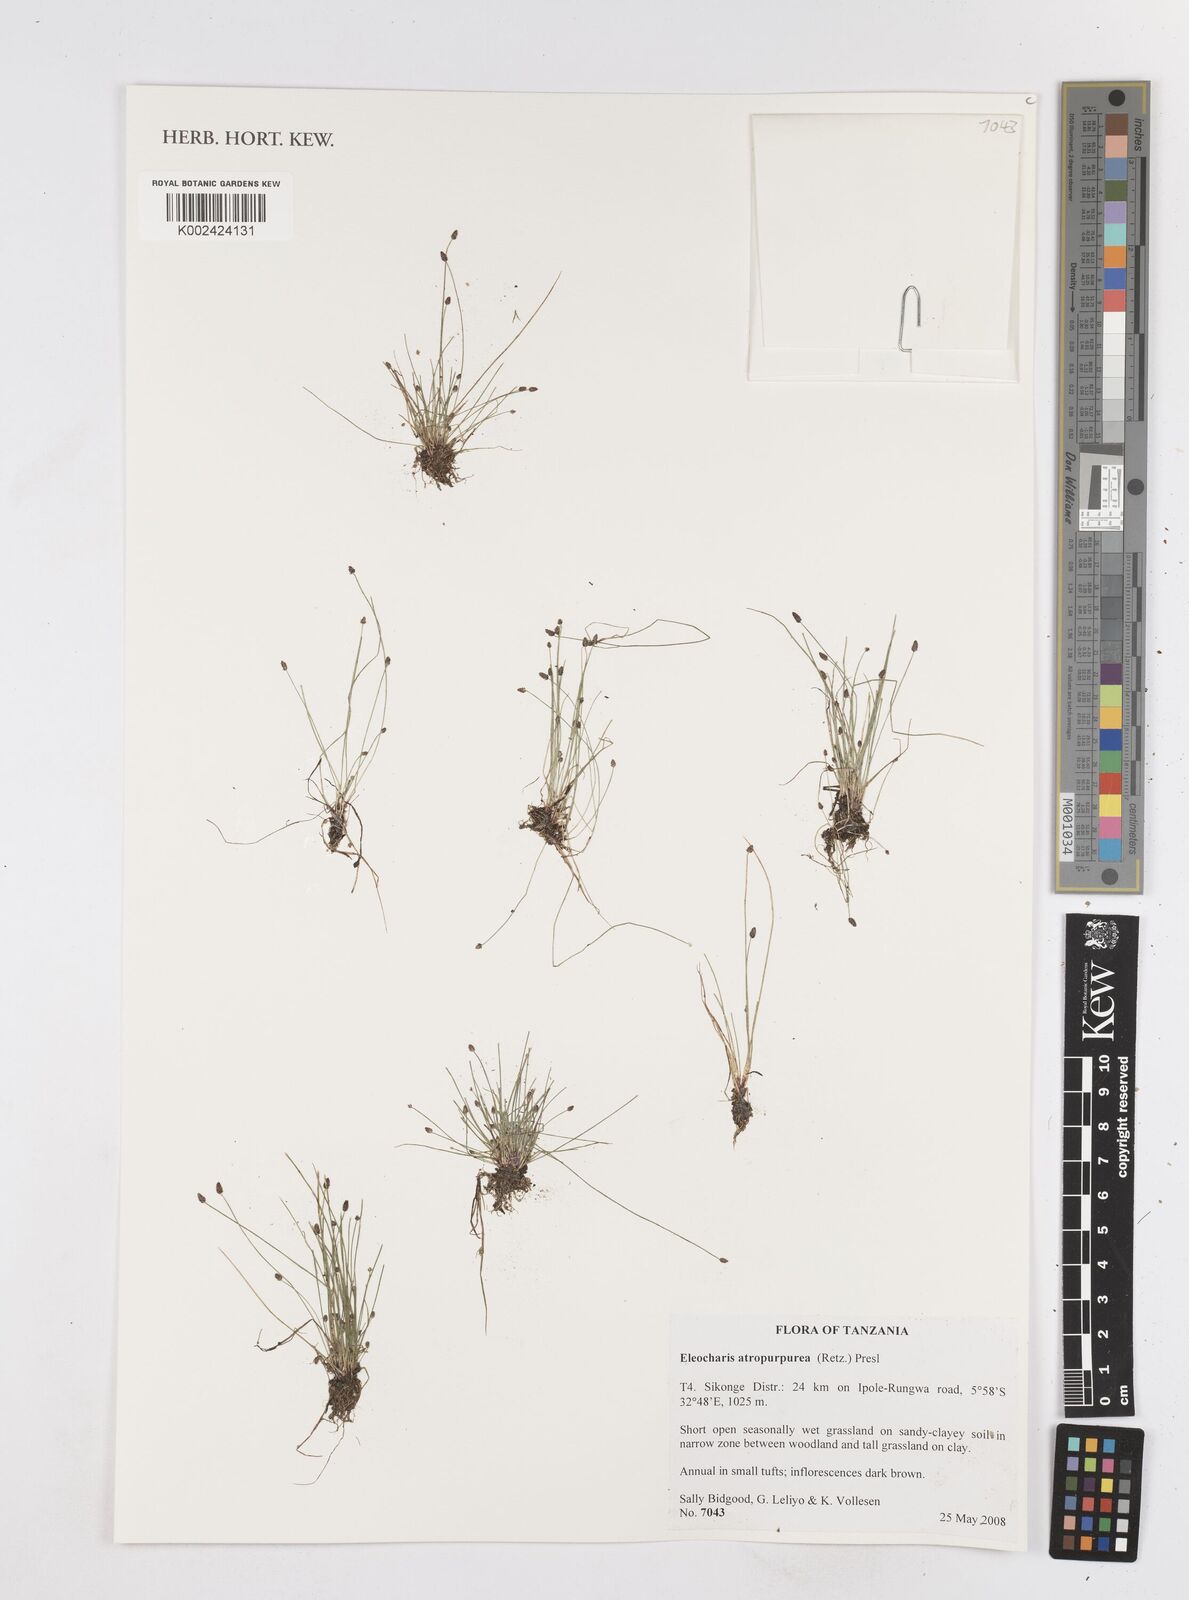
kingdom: Plantae
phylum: Tracheophyta
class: Liliopsida
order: Poales
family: Cyperaceae
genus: Eleocharis
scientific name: Eleocharis atropurpurea
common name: Purple spikerush
